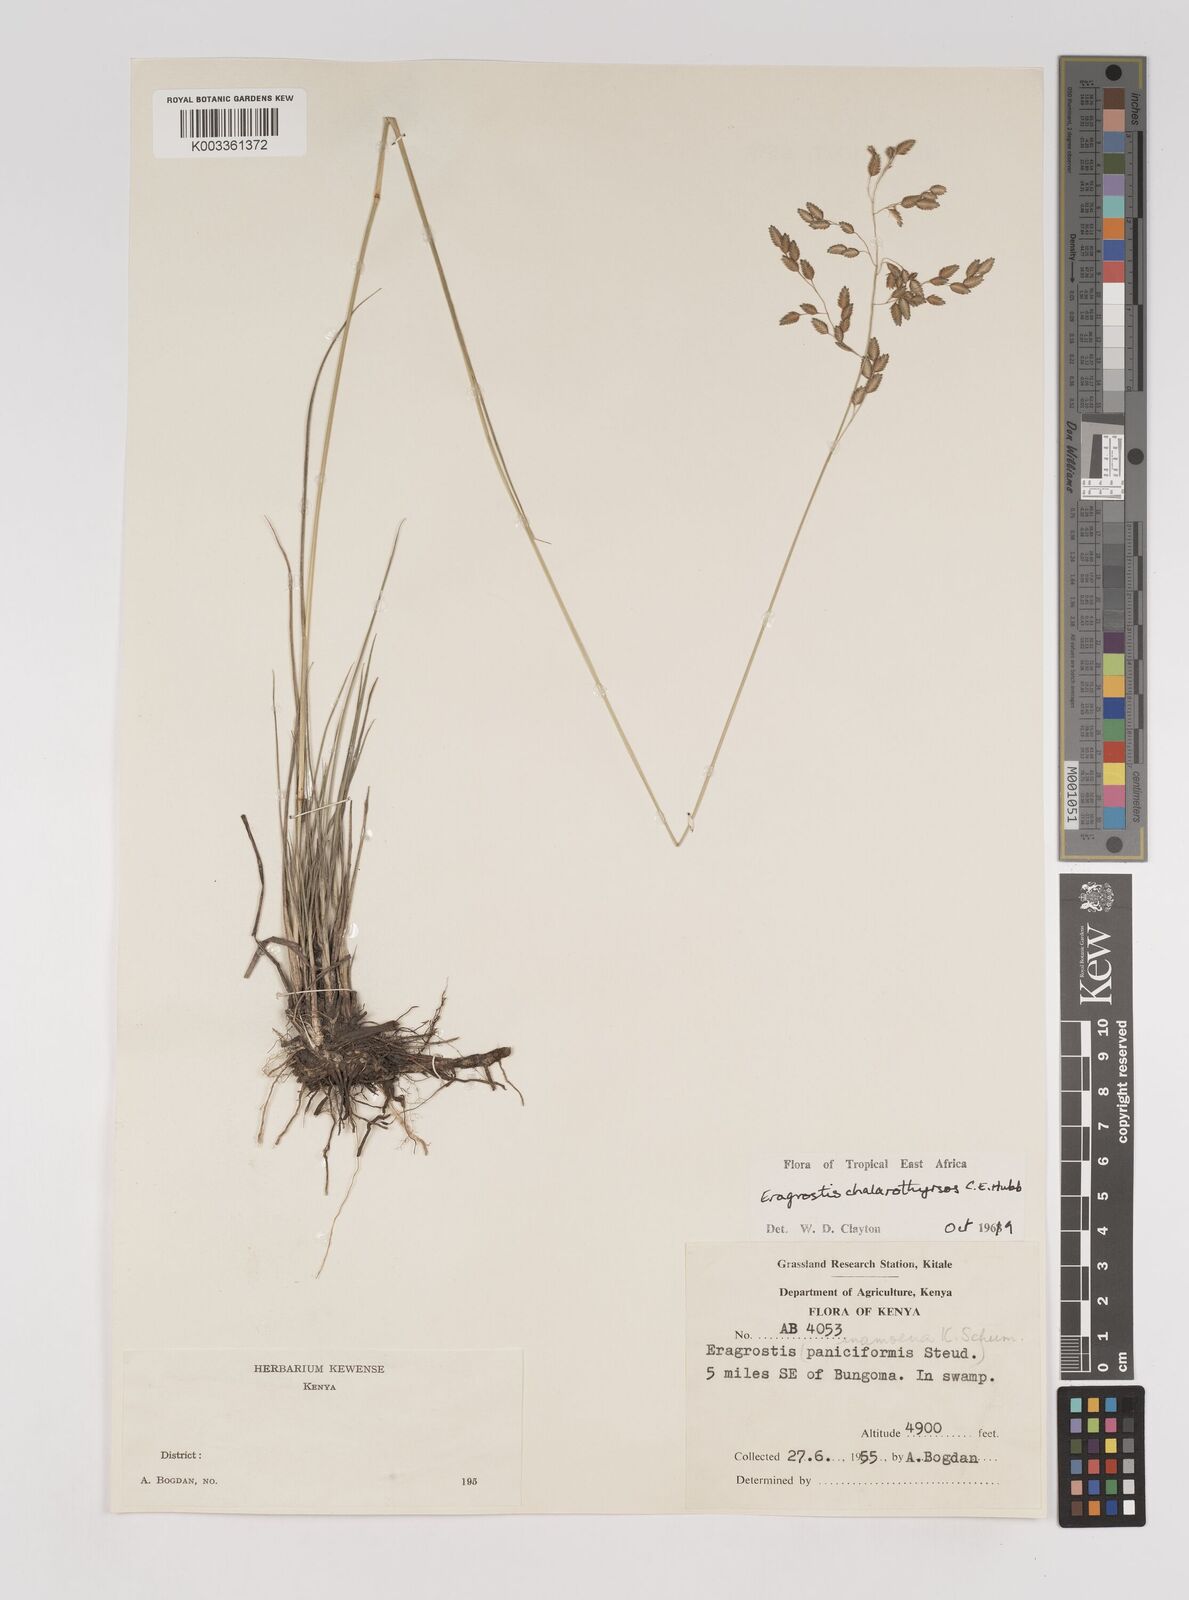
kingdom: Plantae
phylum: Tracheophyta
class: Liliopsida
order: Poales
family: Poaceae
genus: Eragrostis
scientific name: Eragrostis chalarothyrsos
